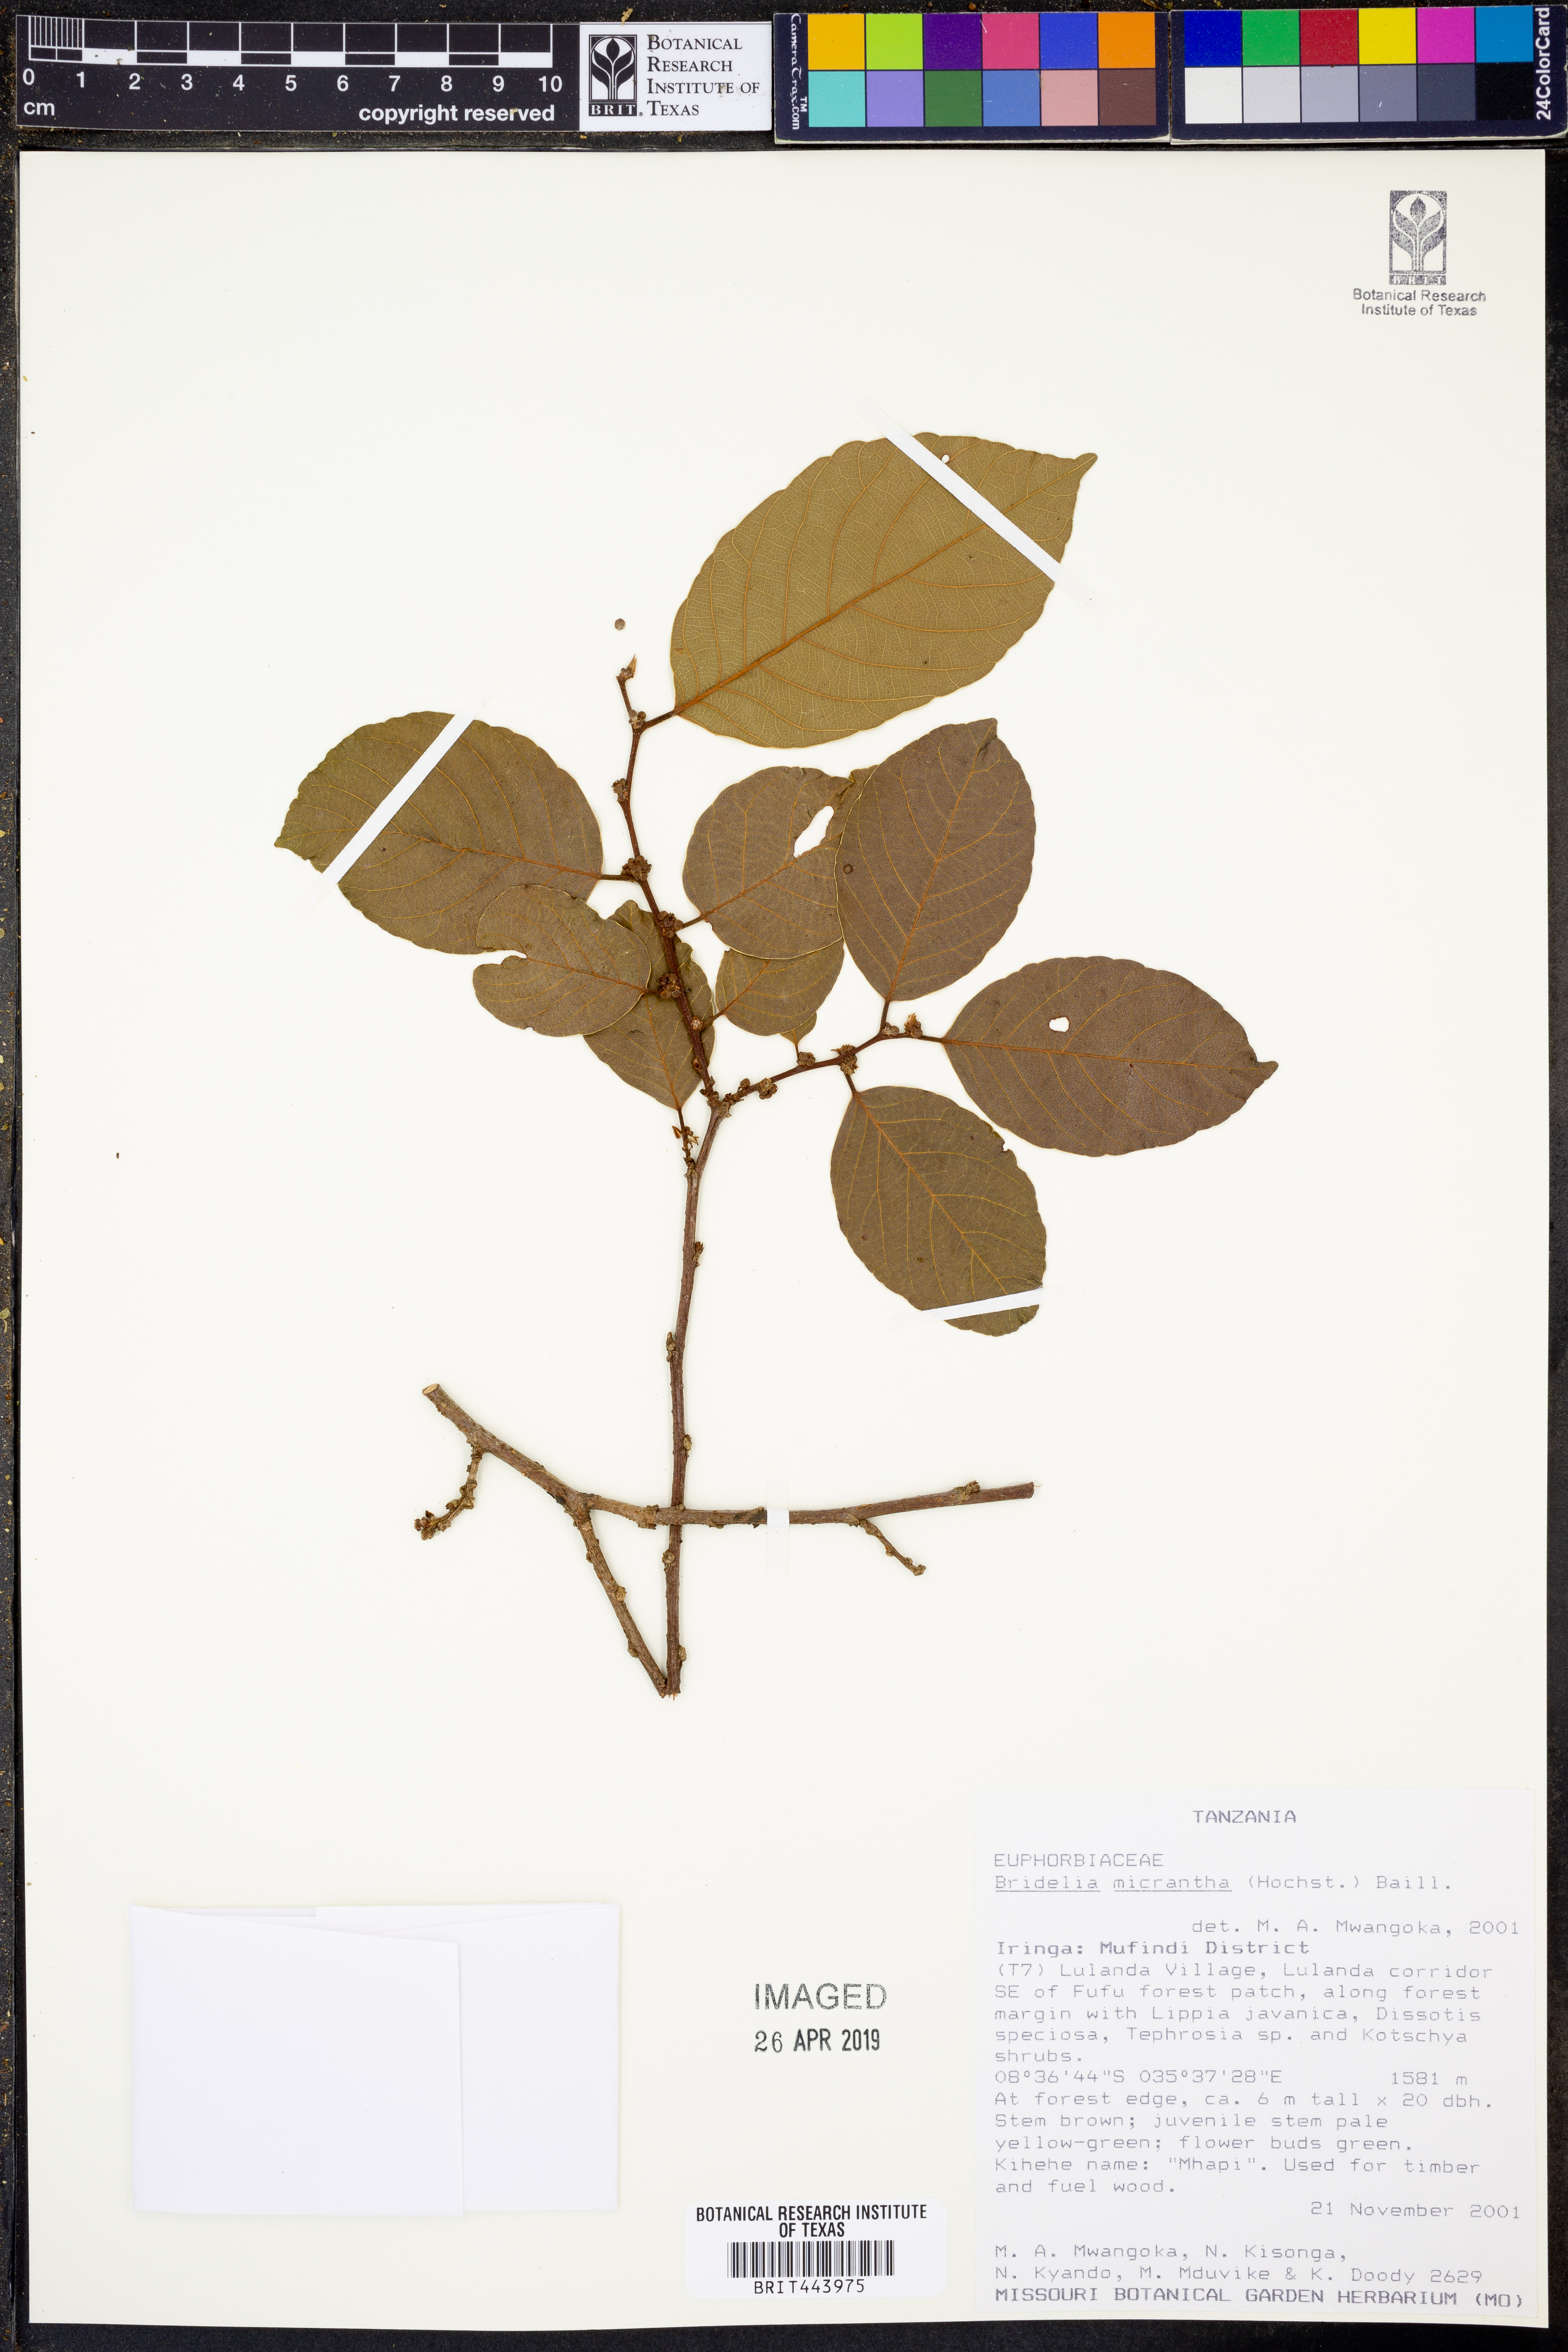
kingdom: Plantae
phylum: Tracheophyta
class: Magnoliopsida
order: Malpighiales
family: Phyllanthaceae
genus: Bridelia
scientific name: Bridelia micrantha
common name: Bridelia
